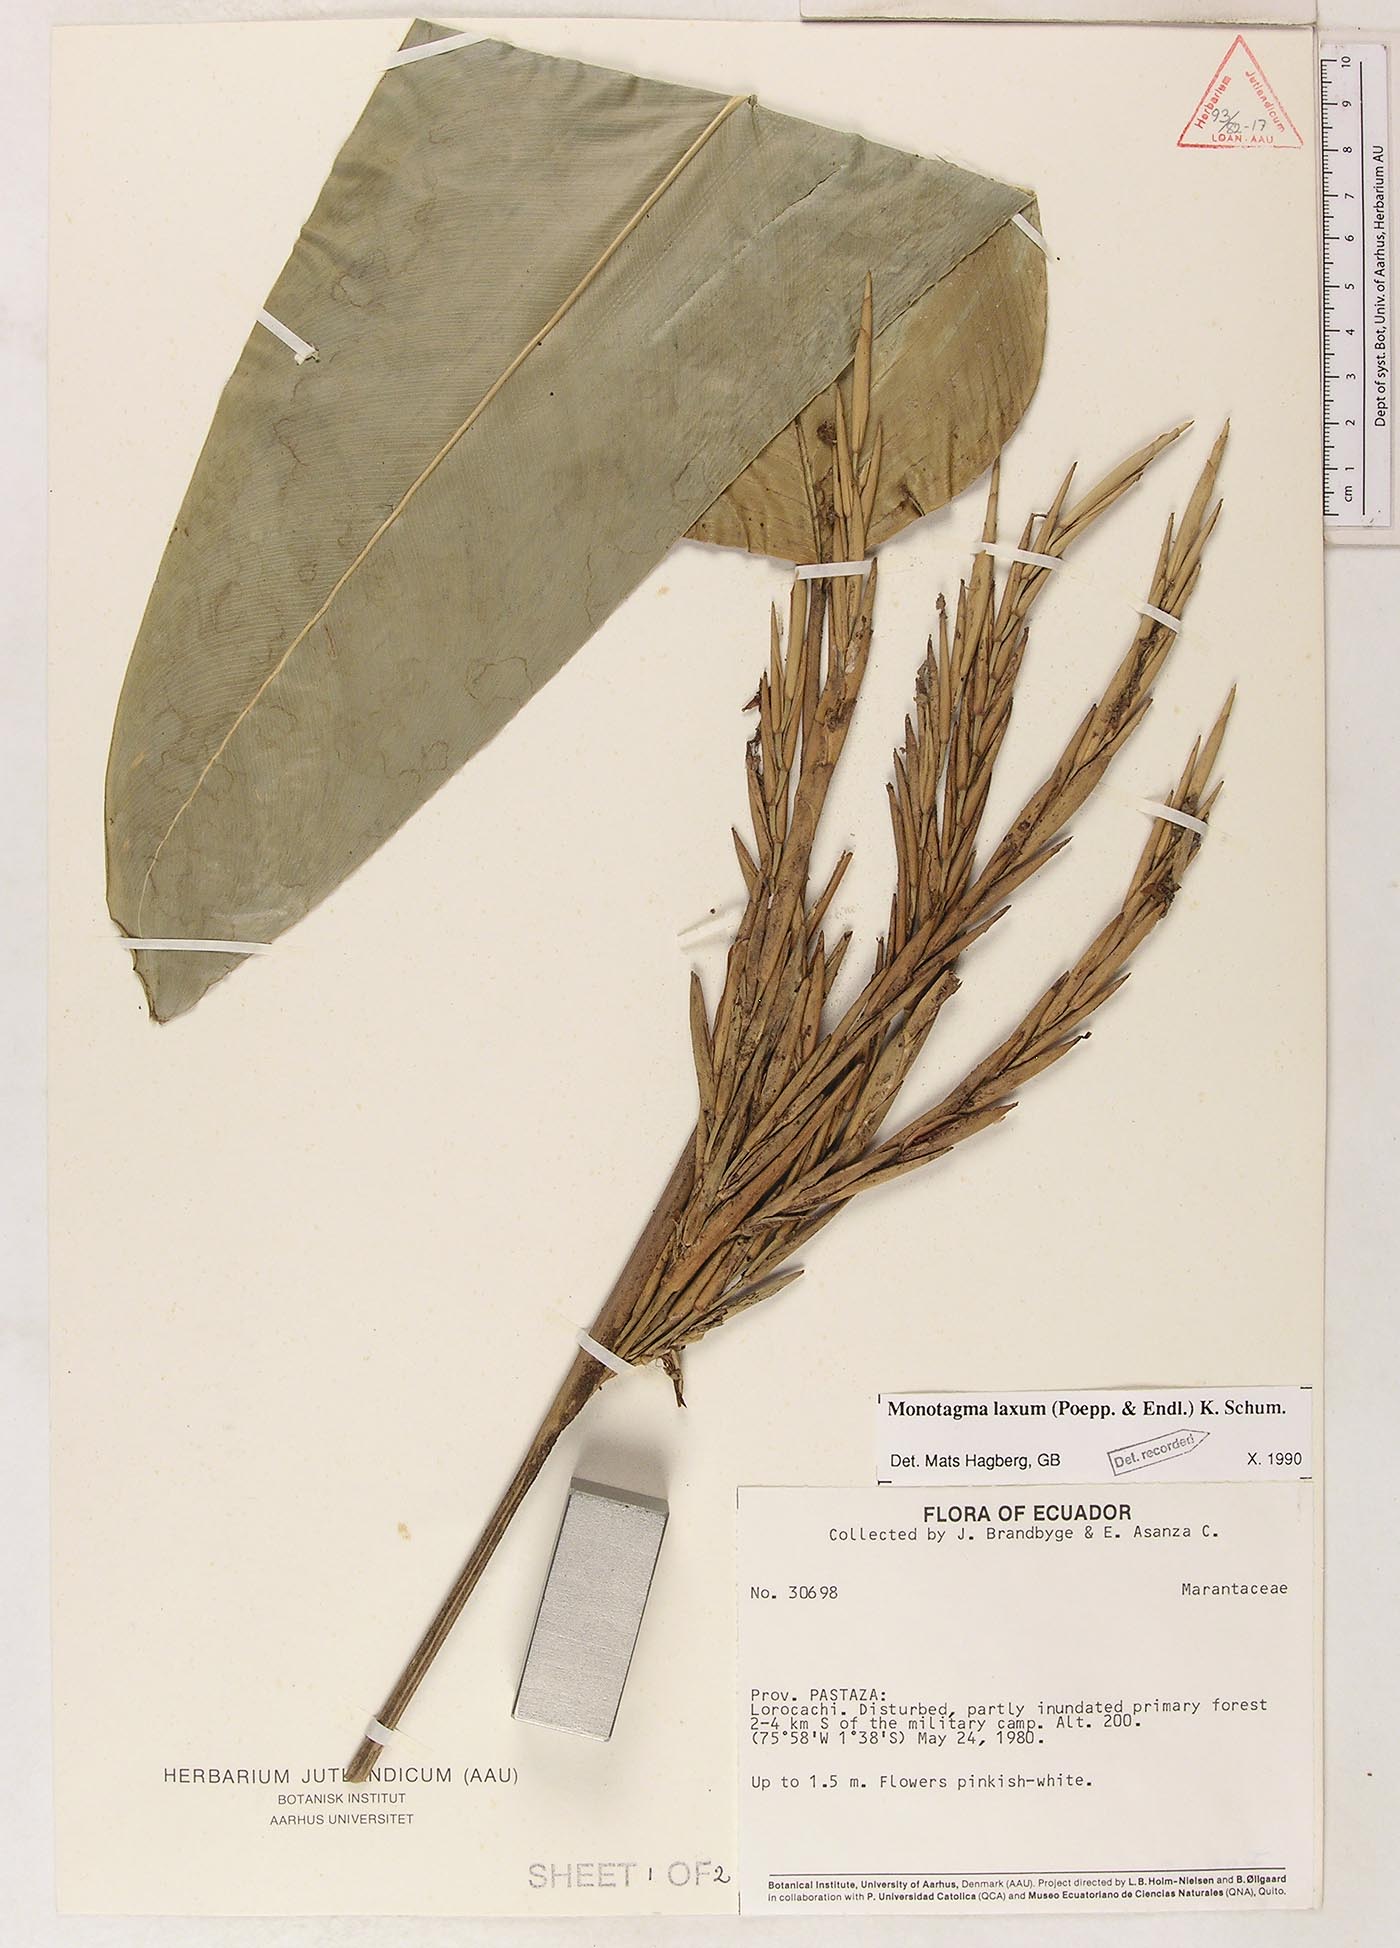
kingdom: Plantae
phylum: Tracheophyta
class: Liliopsida
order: Zingiberales
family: Marantaceae
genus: Monotagma
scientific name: Monotagma laxum
